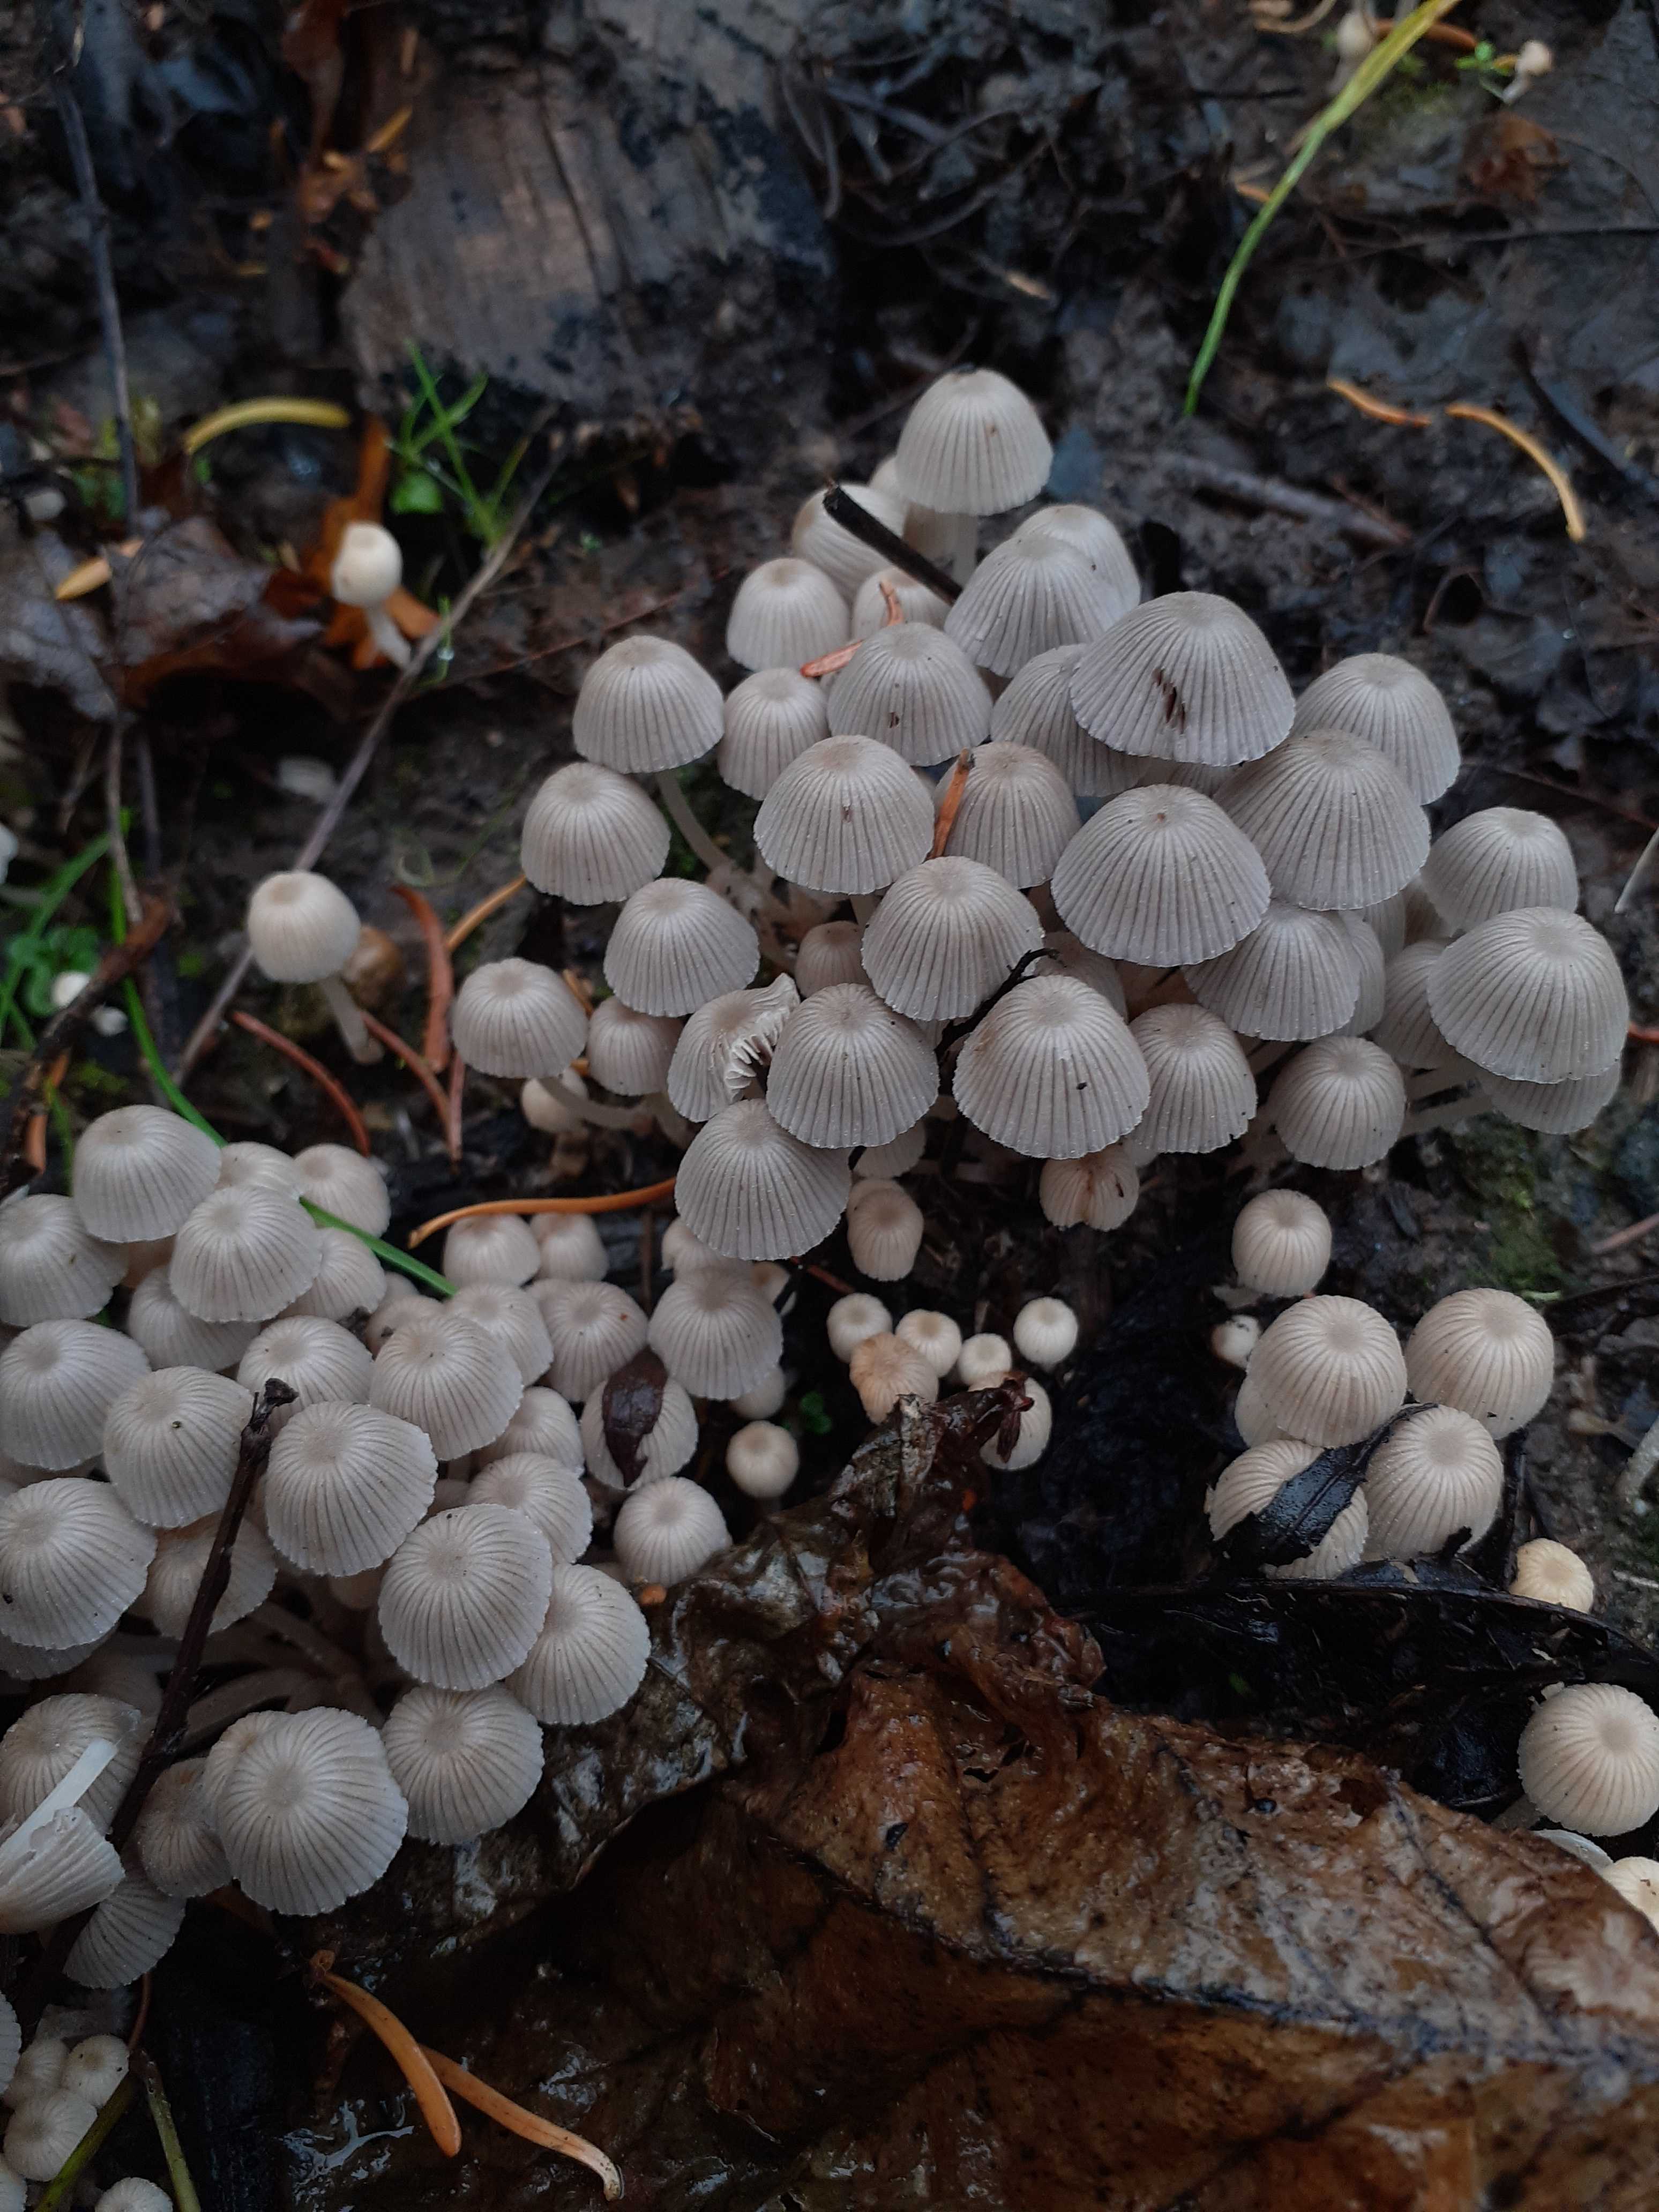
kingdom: Fungi
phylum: Basidiomycota
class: Agaricomycetes
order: Agaricales
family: Psathyrellaceae
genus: Coprinellus
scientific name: Coprinellus disseminatus
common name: bredsået blækhat
